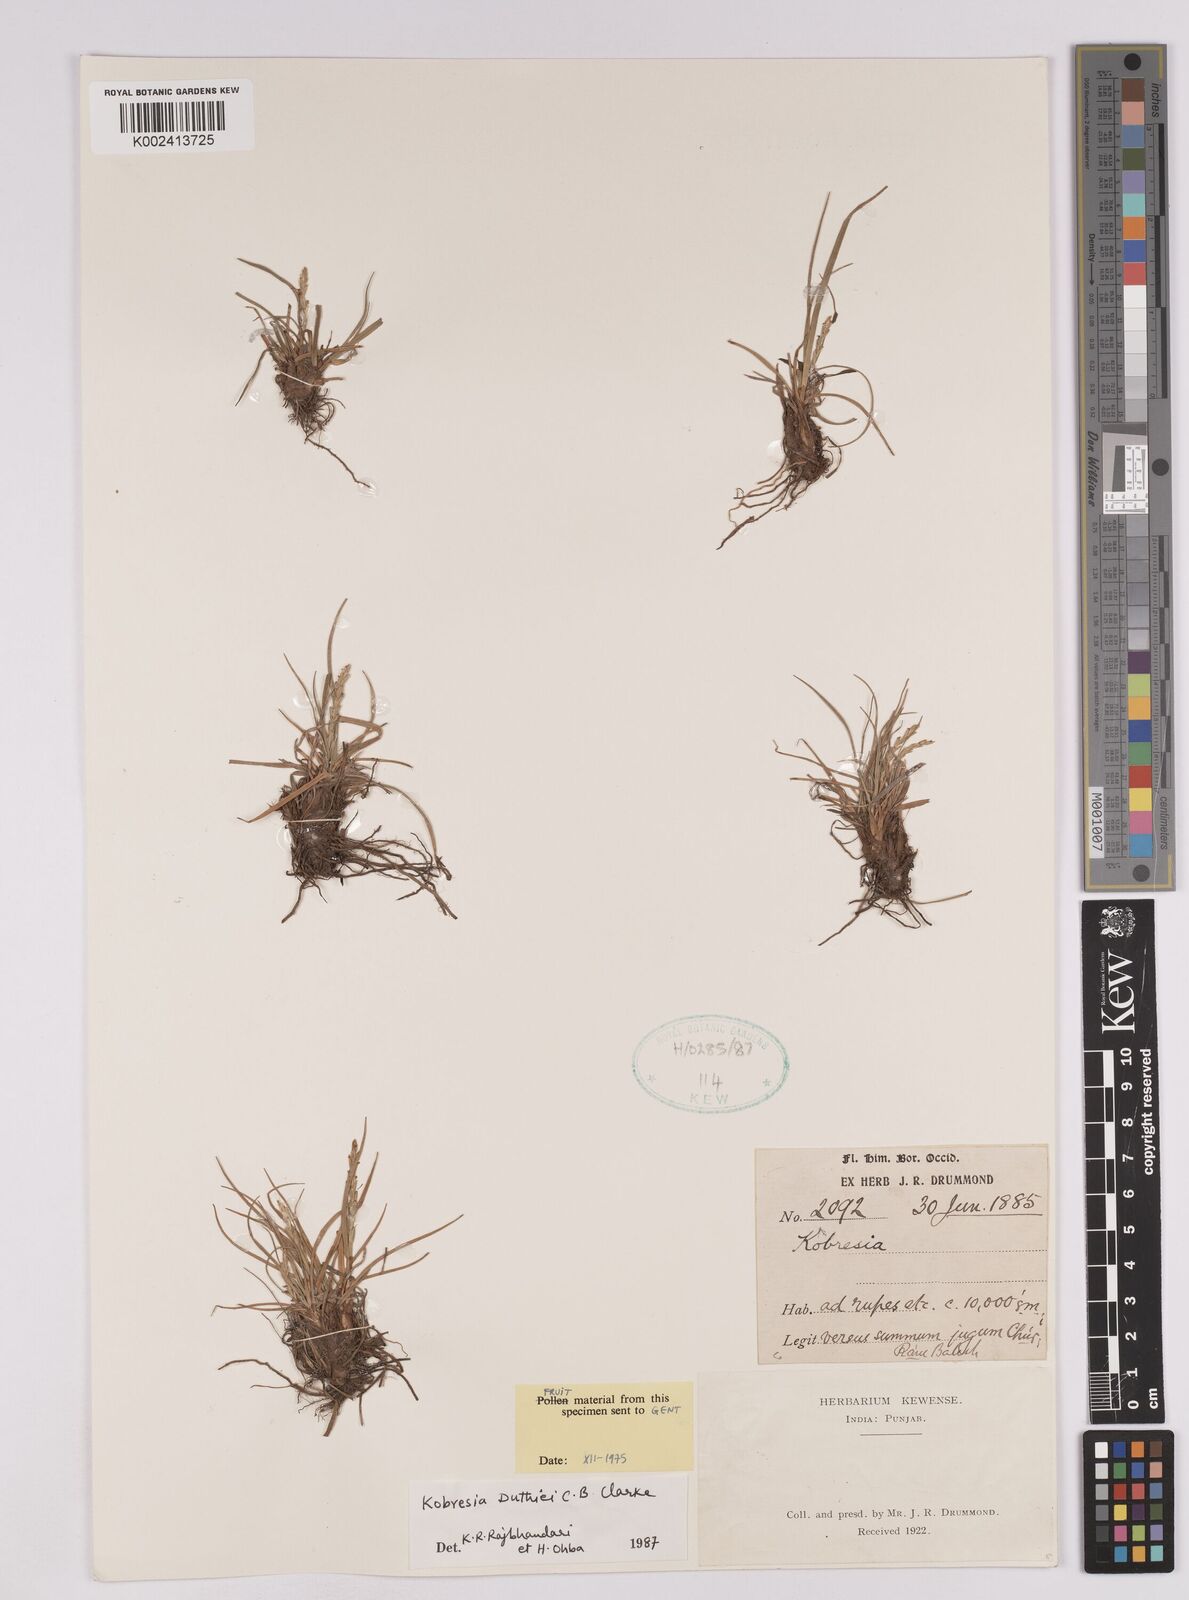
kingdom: Plantae
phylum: Tracheophyta
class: Liliopsida
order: Poales
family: Cyperaceae
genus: Carex
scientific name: Carex clavispica
